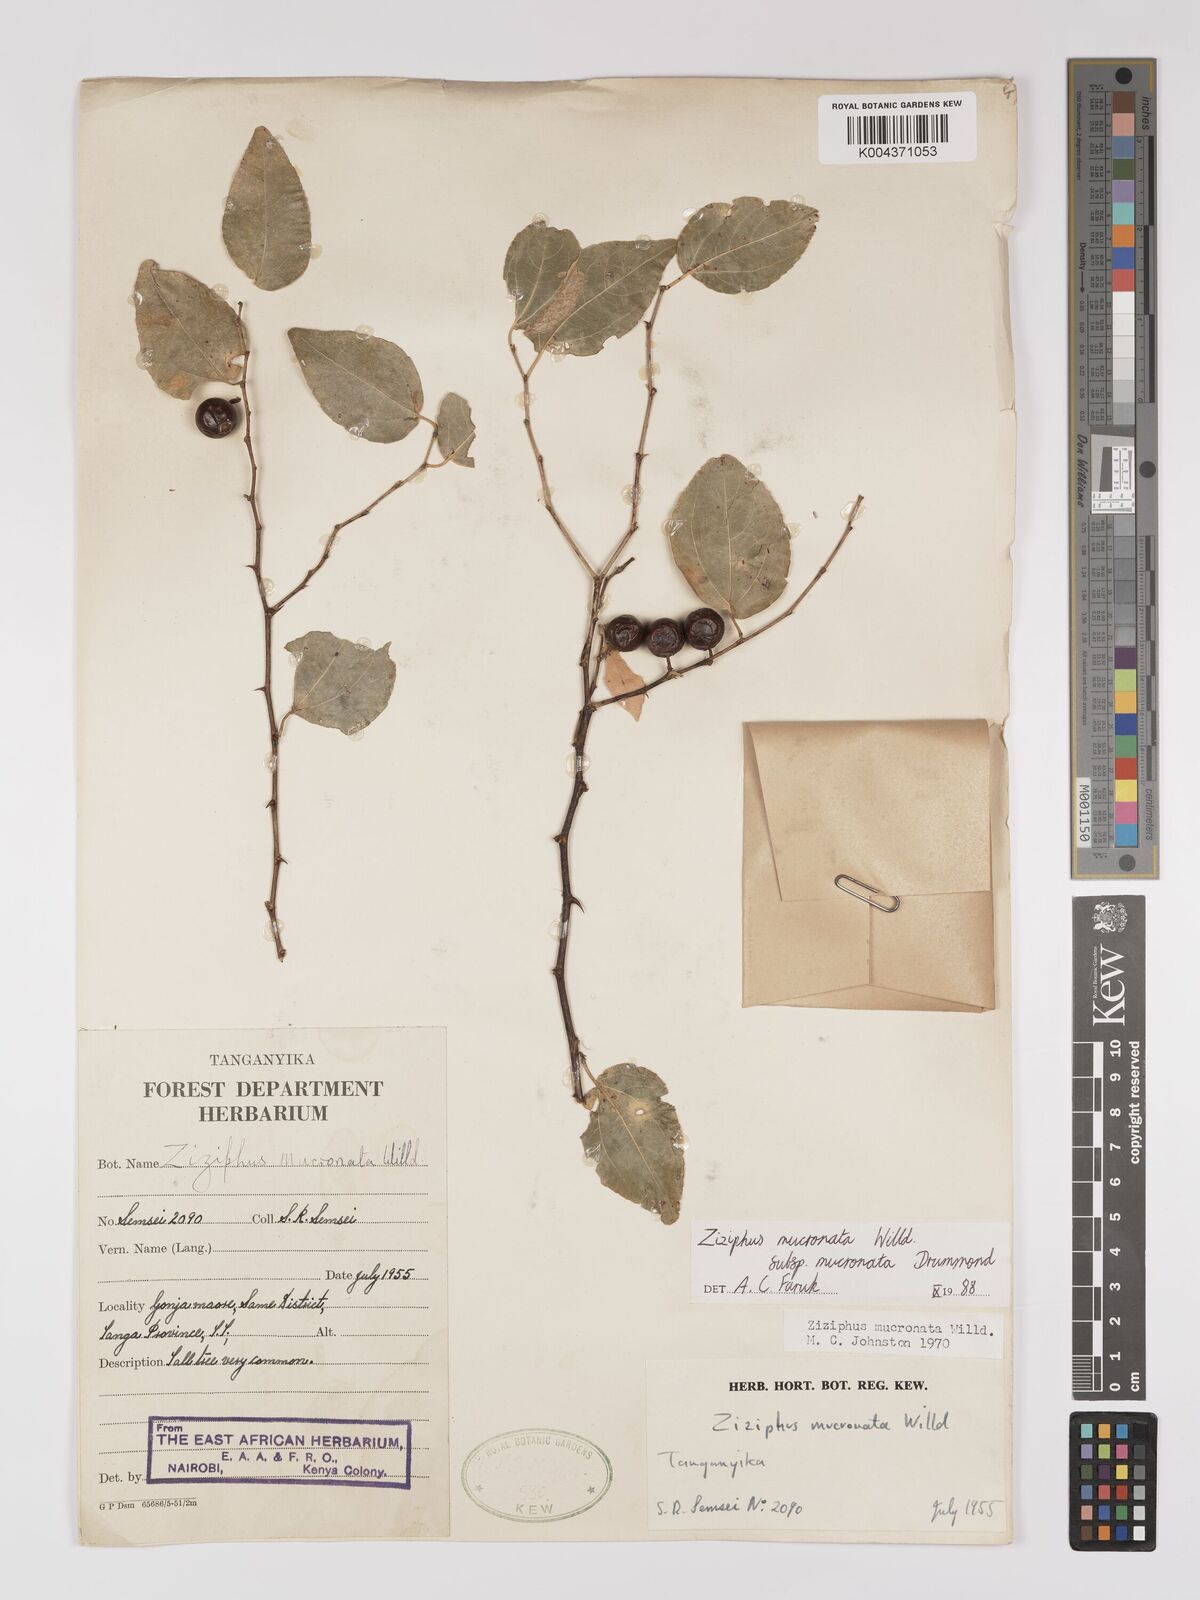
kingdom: Plantae
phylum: Tracheophyta
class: Magnoliopsida
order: Rosales
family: Rhamnaceae
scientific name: Rhamnaceae
